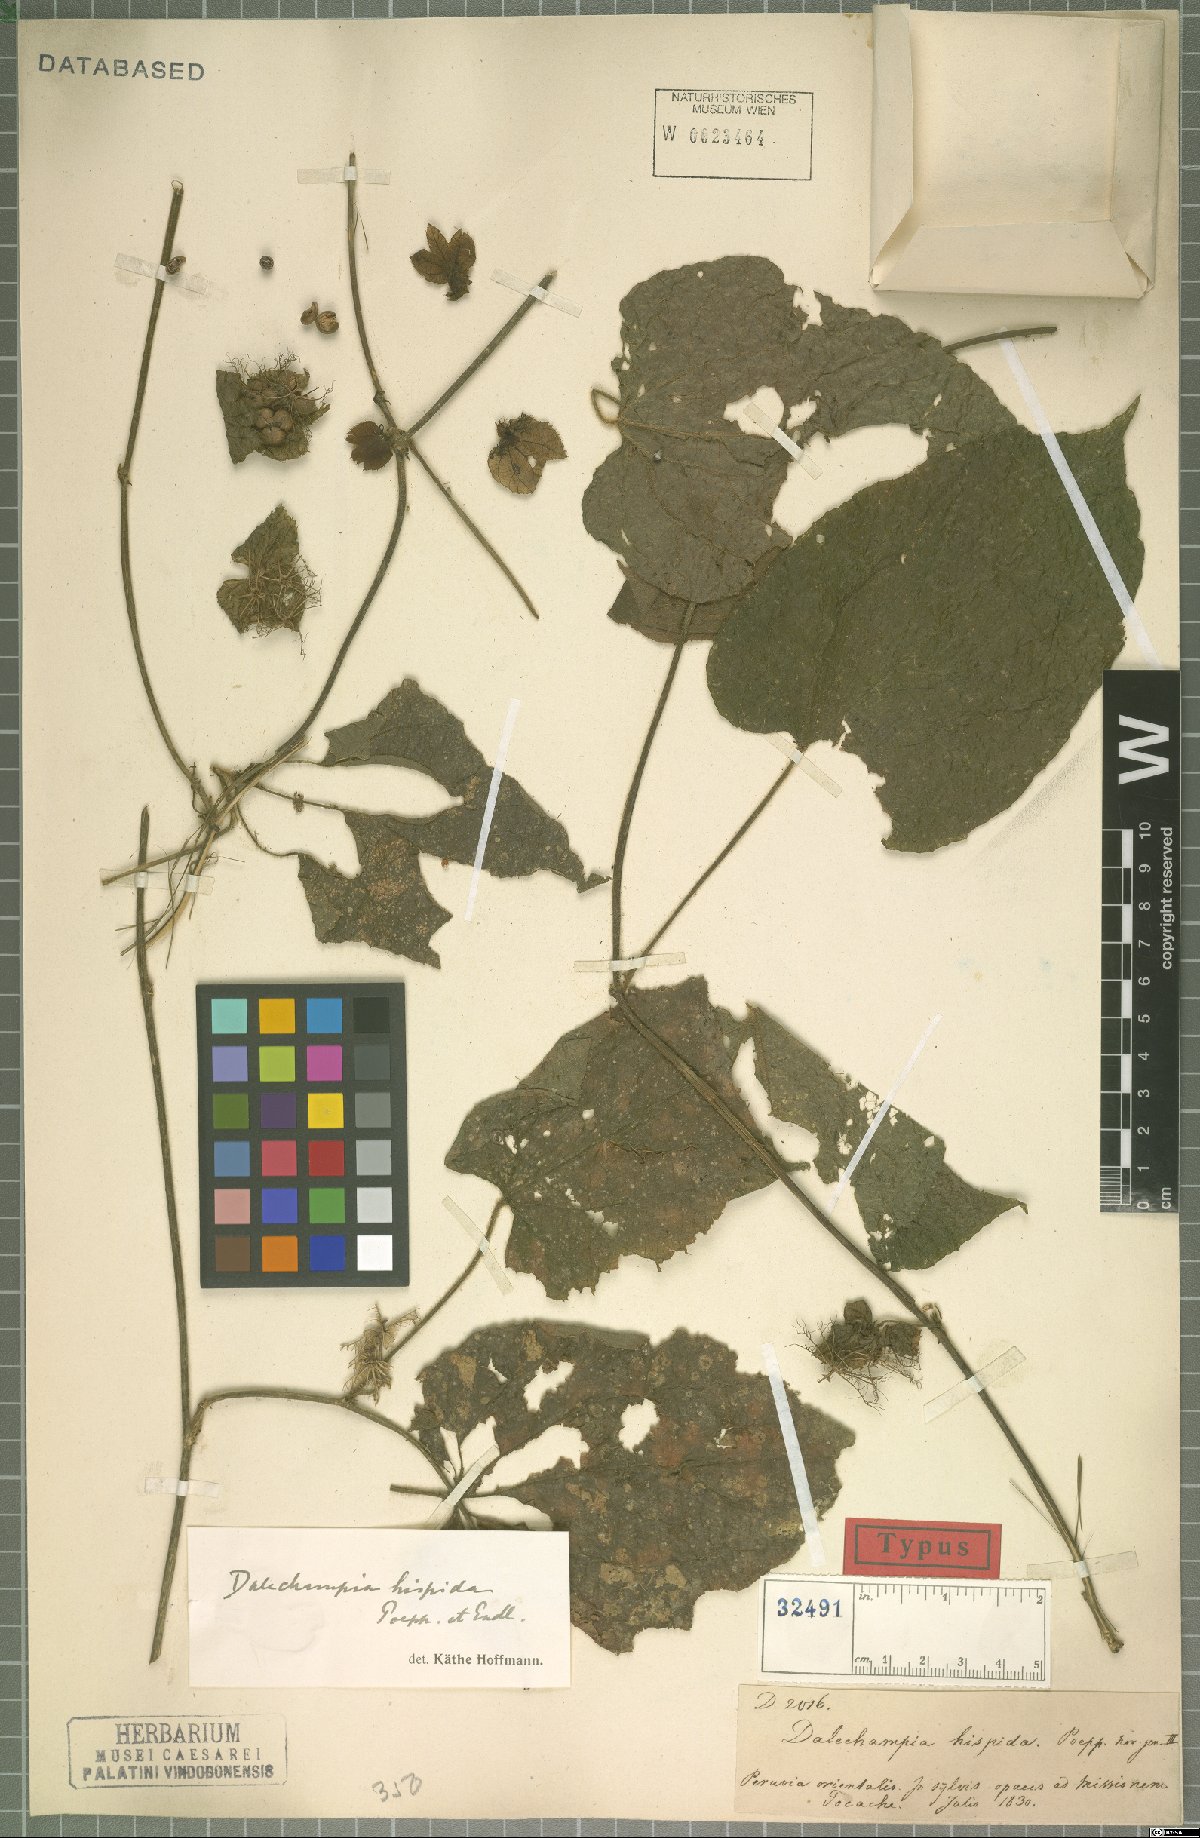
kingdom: Plantae
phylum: Tracheophyta
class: Magnoliopsida
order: Malpighiales
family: Euphorbiaceae
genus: Dalechampia
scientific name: Dalechampia hispida
